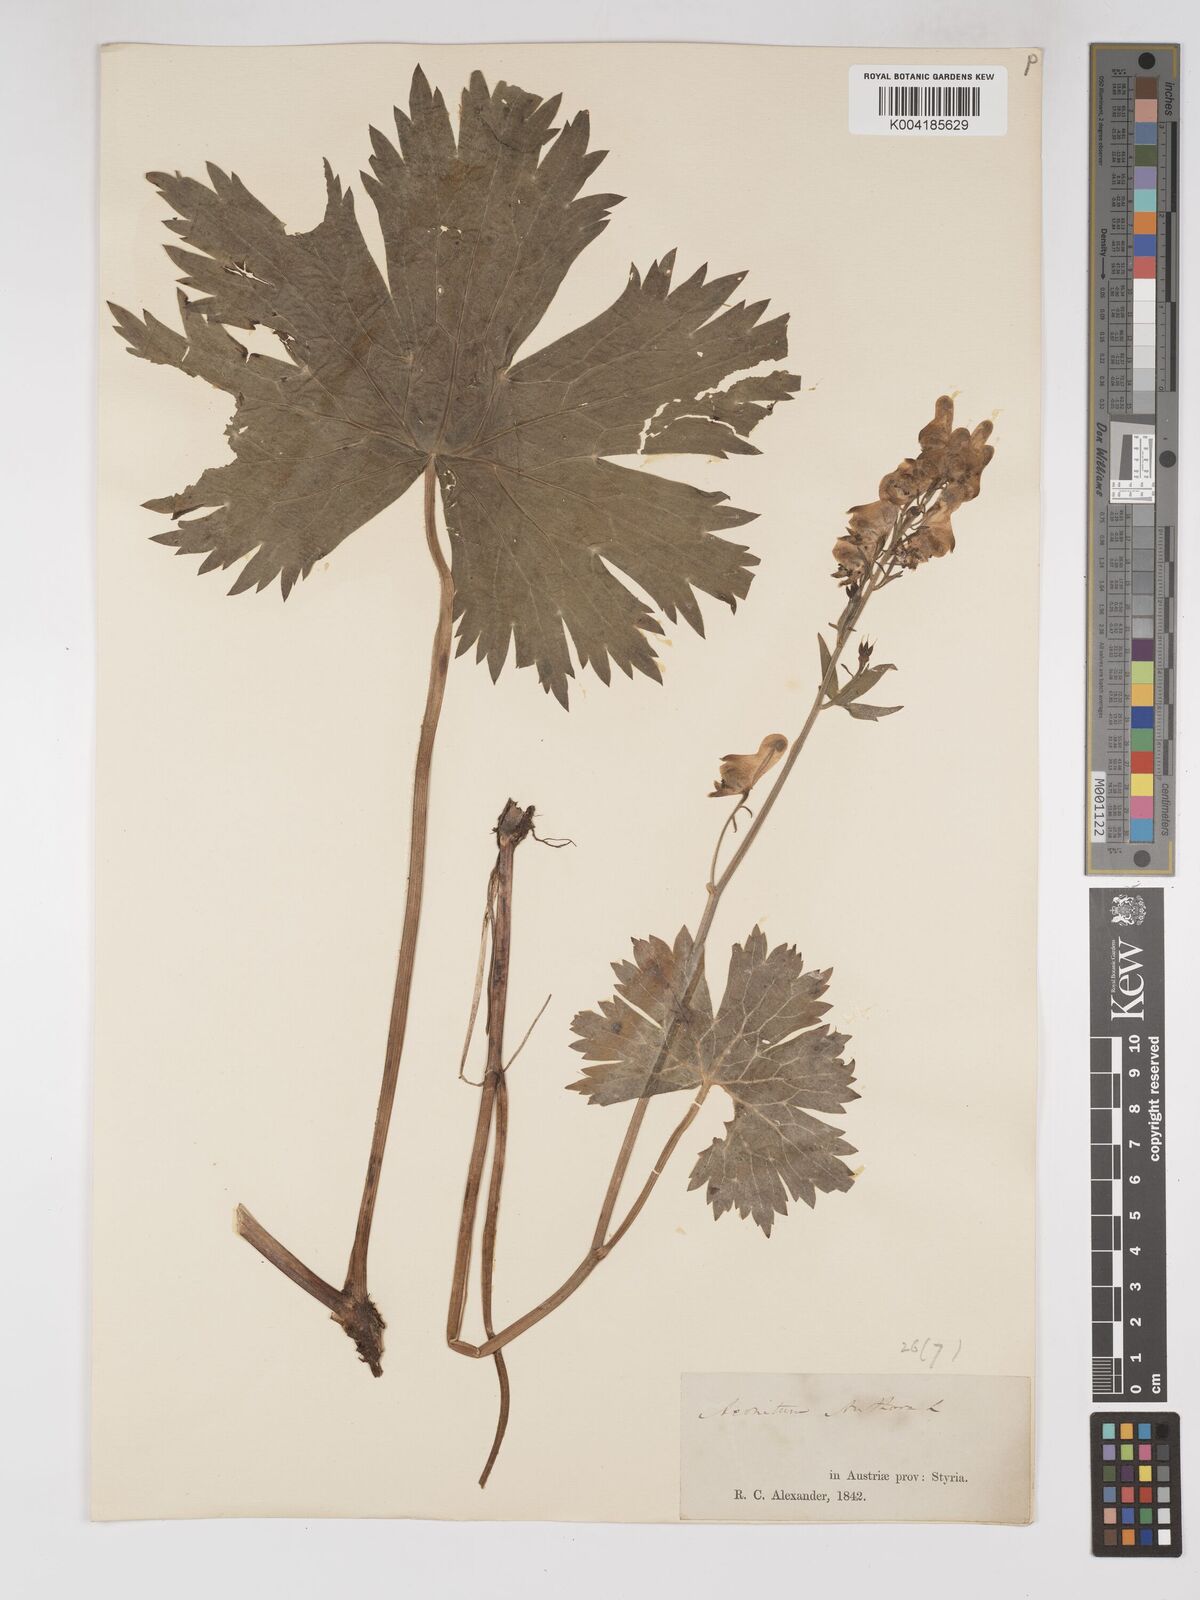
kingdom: Plantae
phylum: Tracheophyta
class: Magnoliopsida
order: Ranunculales
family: Ranunculaceae
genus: Aconitum
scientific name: Aconitum lycoctonum
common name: Wolf's-bane
